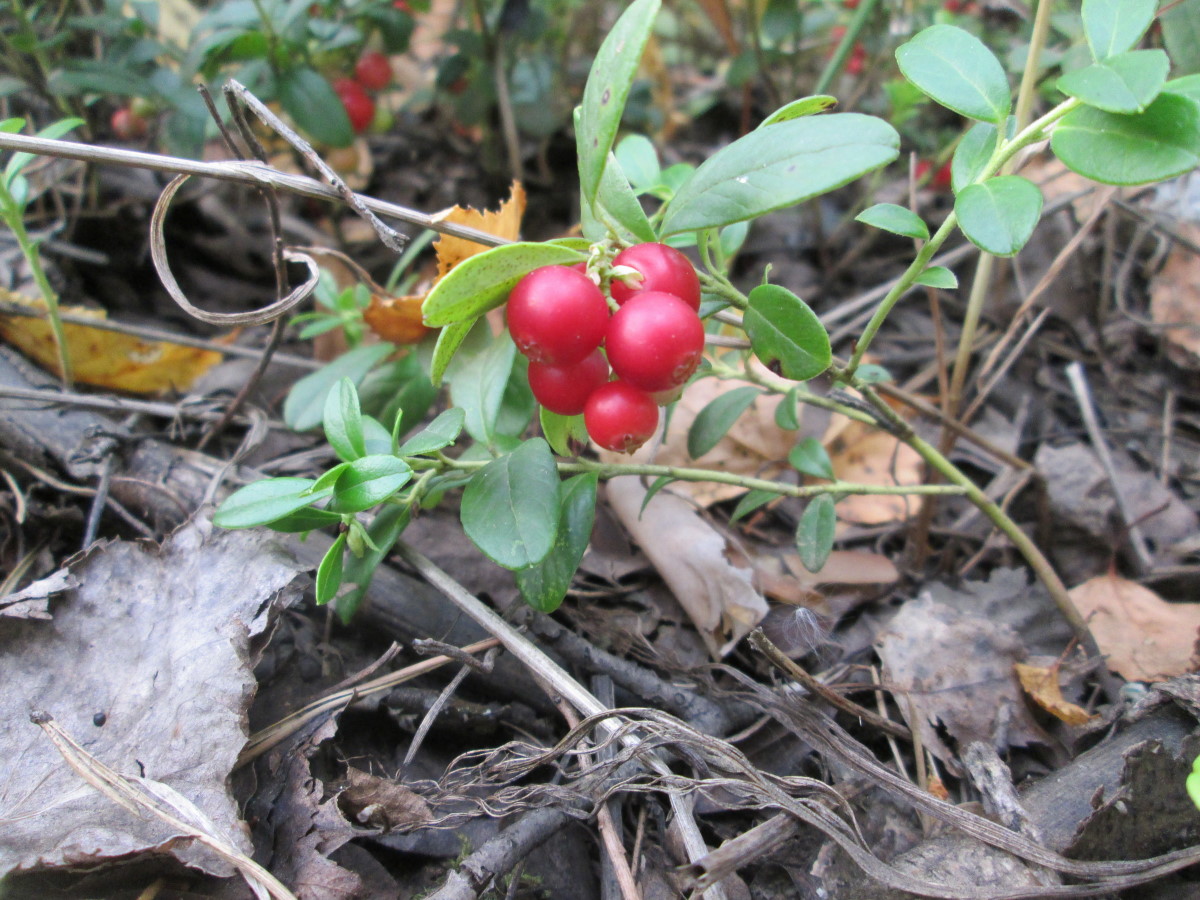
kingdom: Plantae
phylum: Tracheophyta
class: Magnoliopsida
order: Ericales
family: Ericaceae
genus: Vaccinium
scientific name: Vaccinium vitis-idaea
